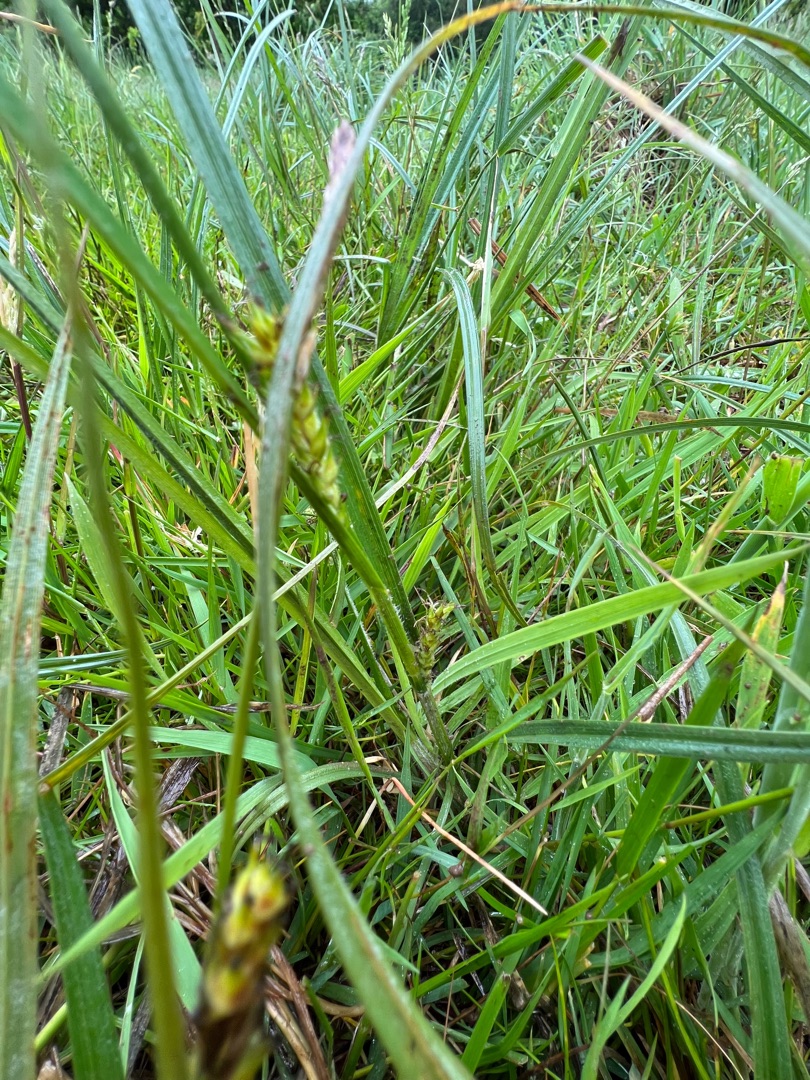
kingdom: Plantae
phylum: Tracheophyta
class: Liliopsida
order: Poales
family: Cyperaceae
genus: Carex
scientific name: Carex hirta
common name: Håret star
